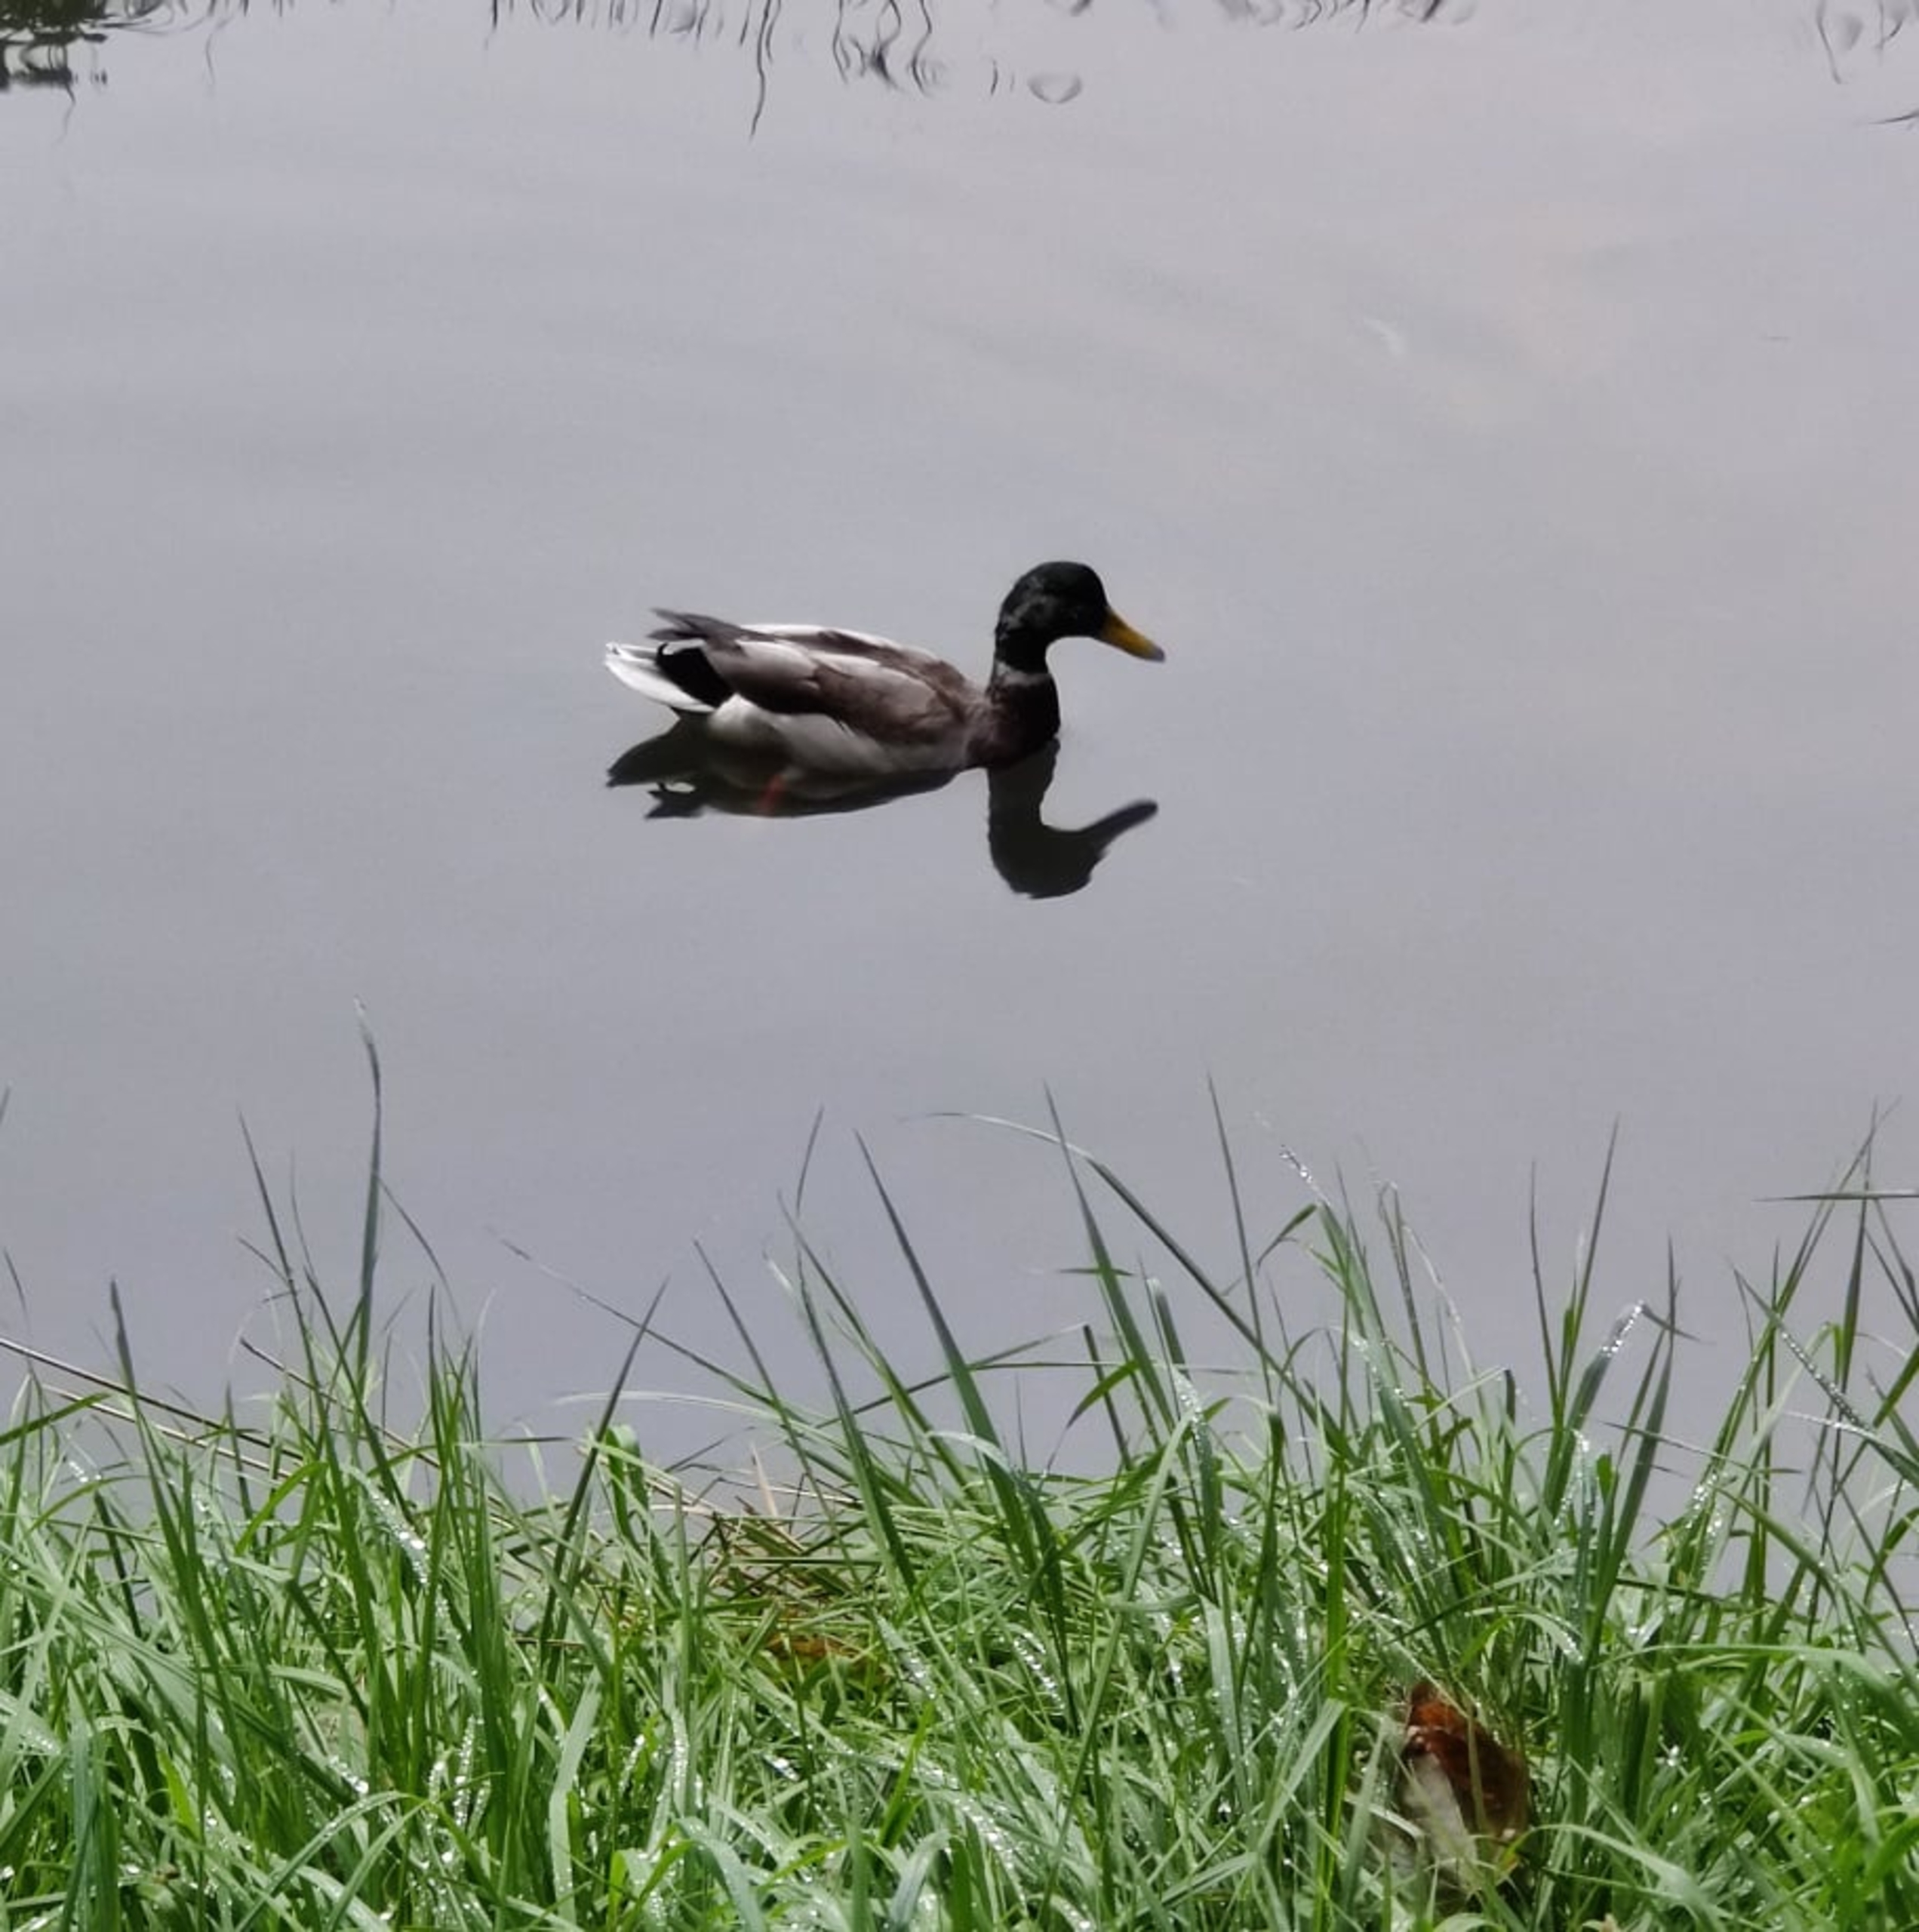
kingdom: Animalia
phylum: Chordata
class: Aves
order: Anseriformes
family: Anatidae
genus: Anas
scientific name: Anas platyrhynchos
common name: Gråand
